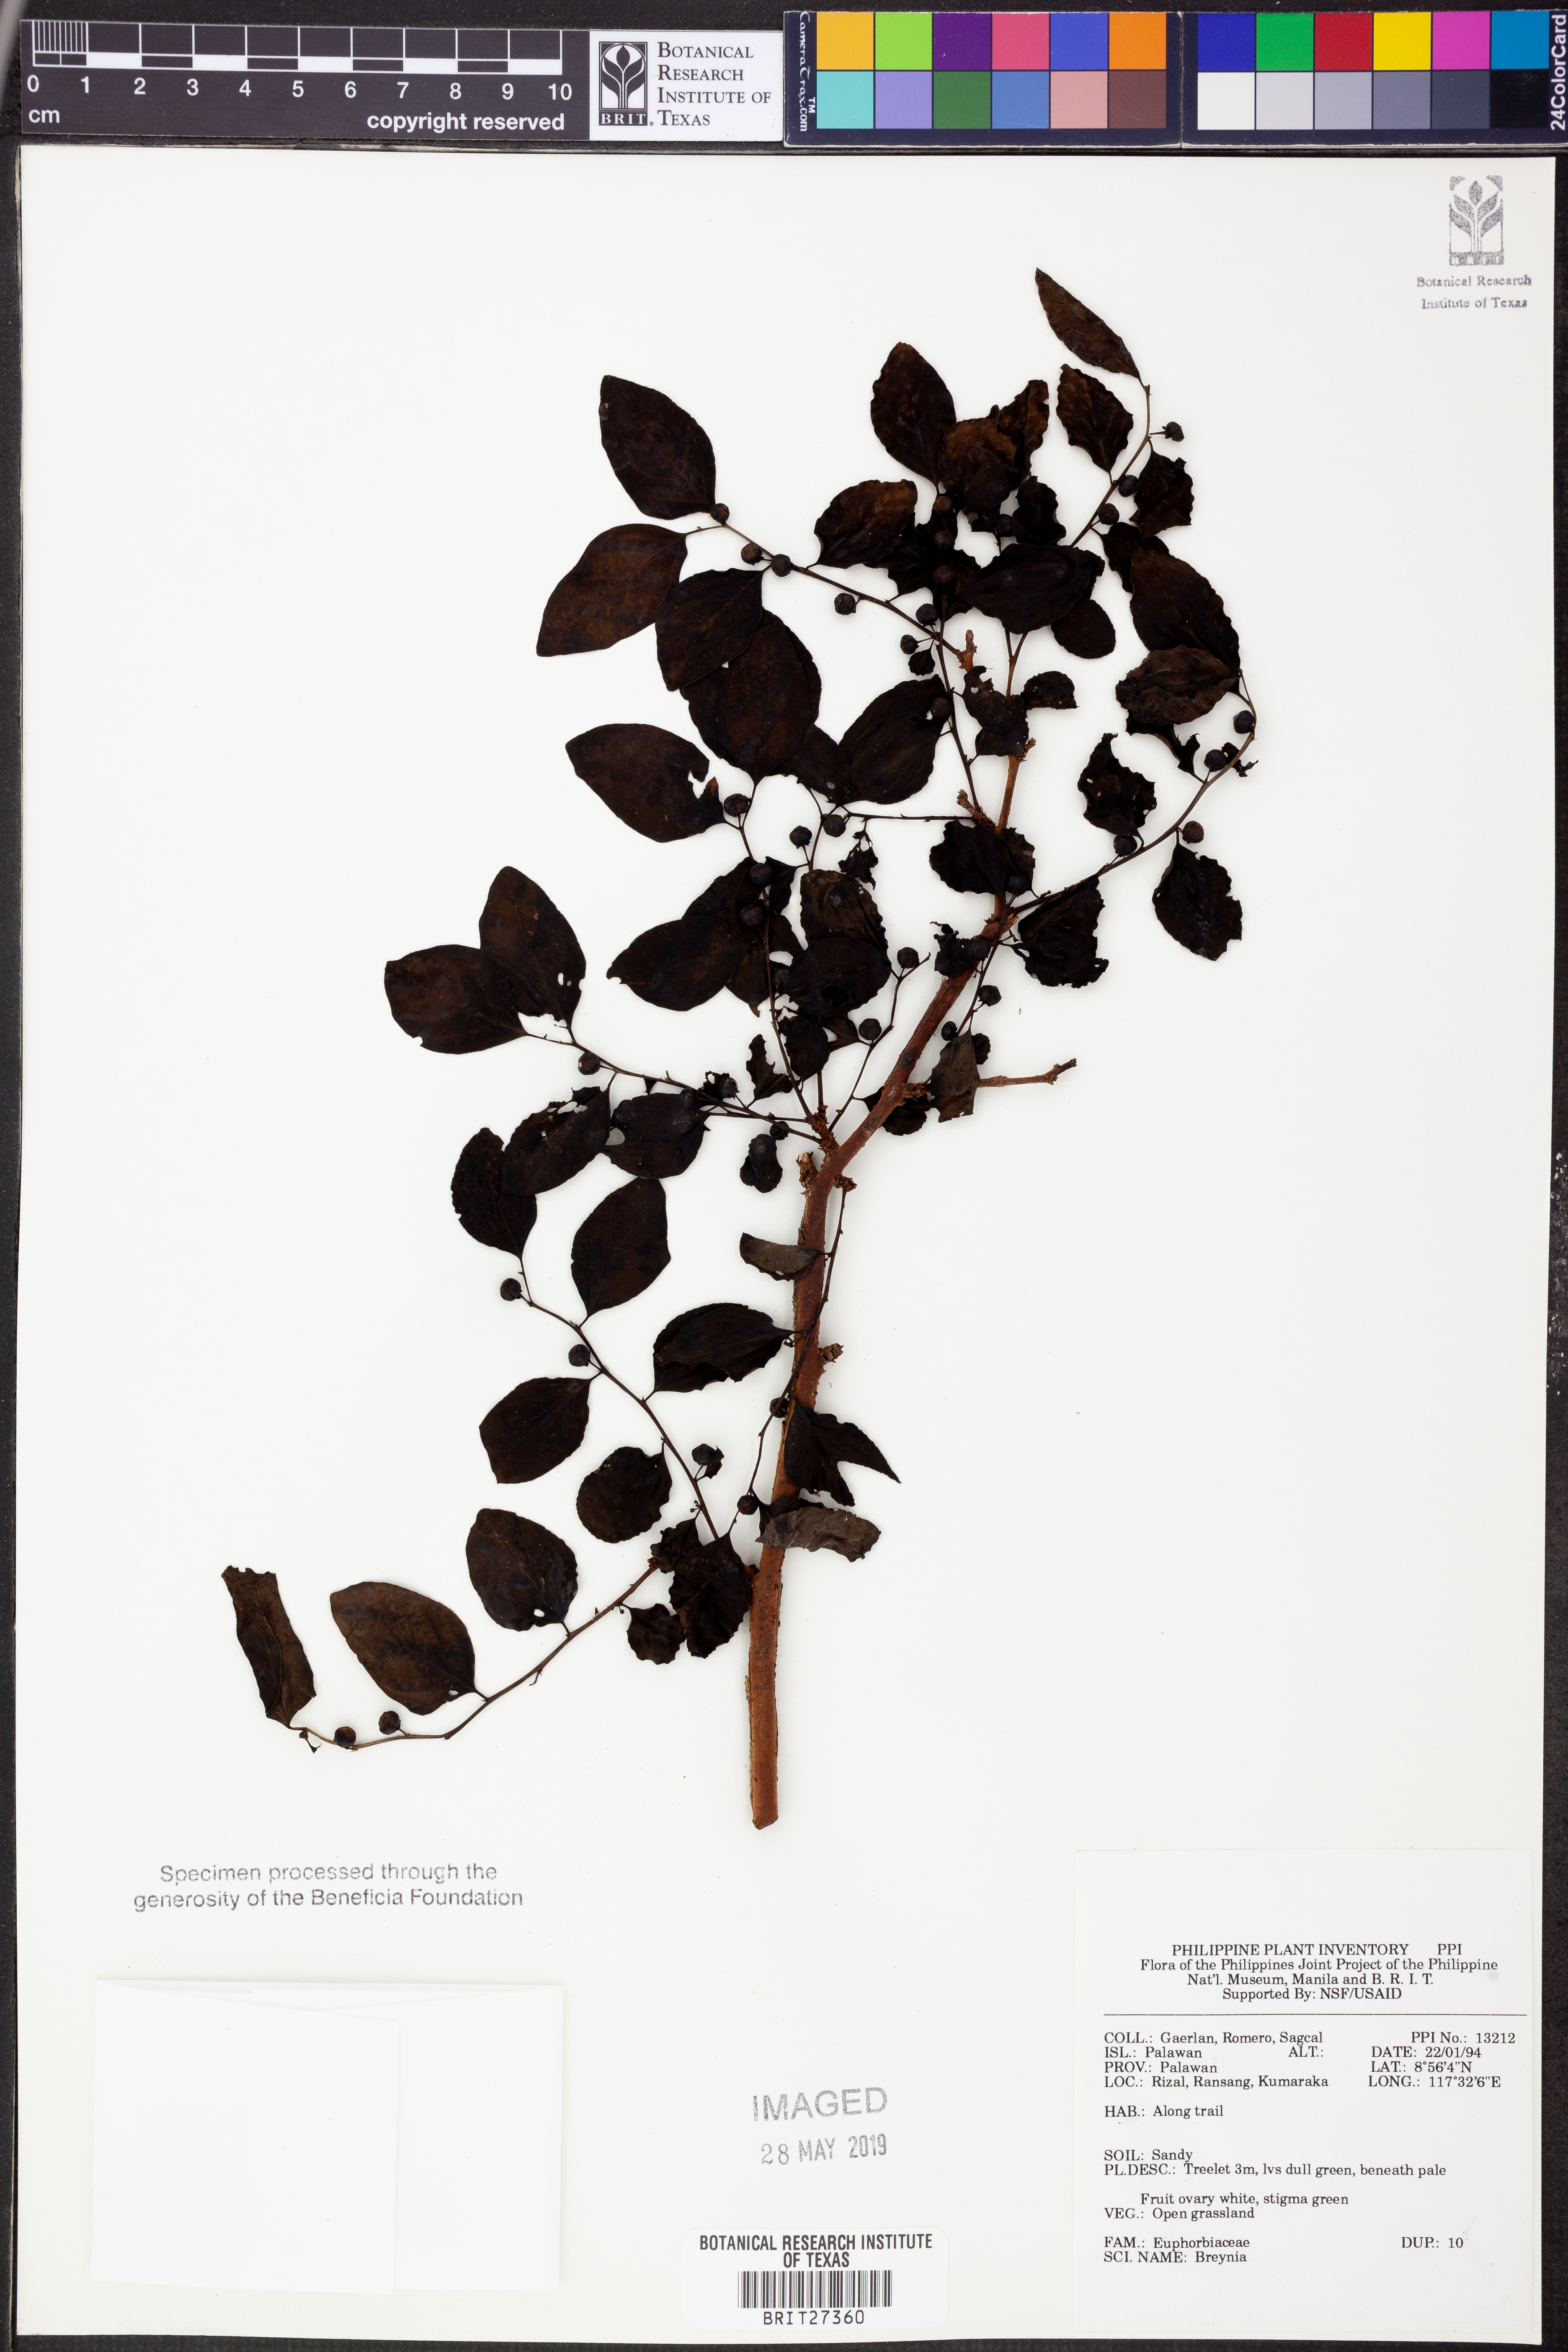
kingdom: Plantae
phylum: Tracheophyta
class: Magnoliopsida
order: Malpighiales
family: Phyllanthaceae
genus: Breynia
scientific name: Breynia
